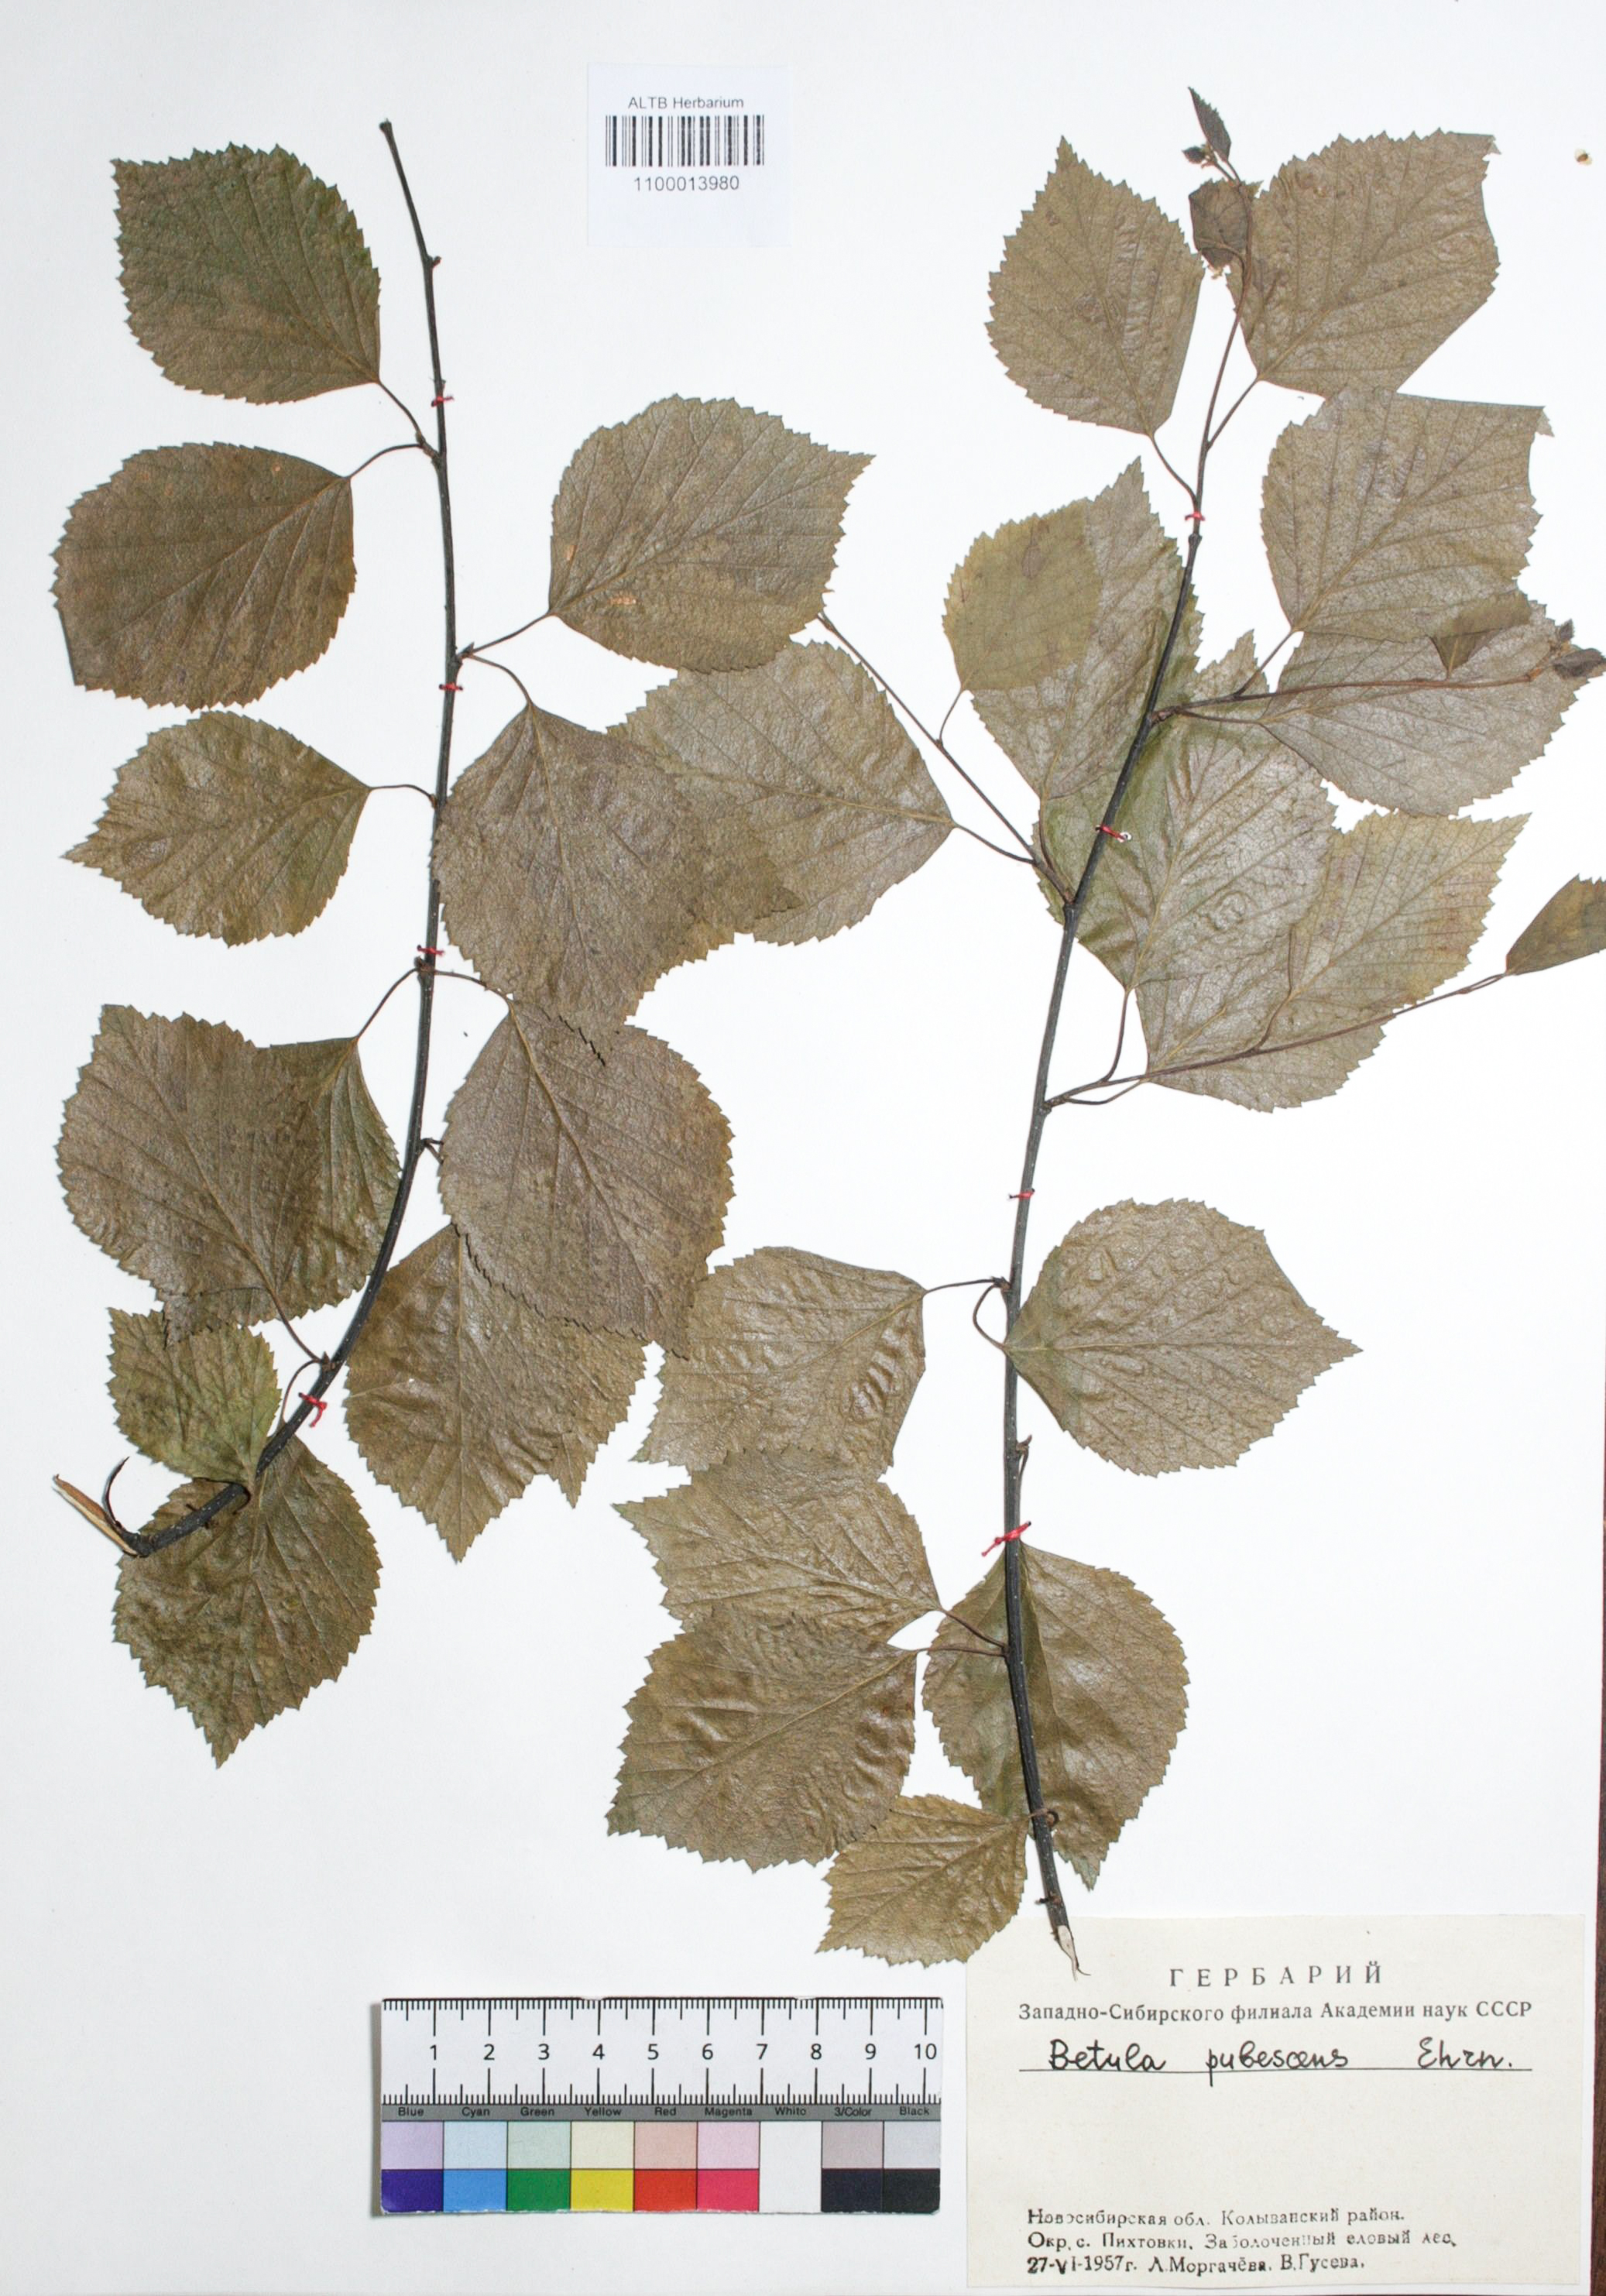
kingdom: Plantae
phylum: Tracheophyta
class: Magnoliopsida
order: Fagales
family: Betulaceae
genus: Betula
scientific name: Betula pubescens
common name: Downy birch
